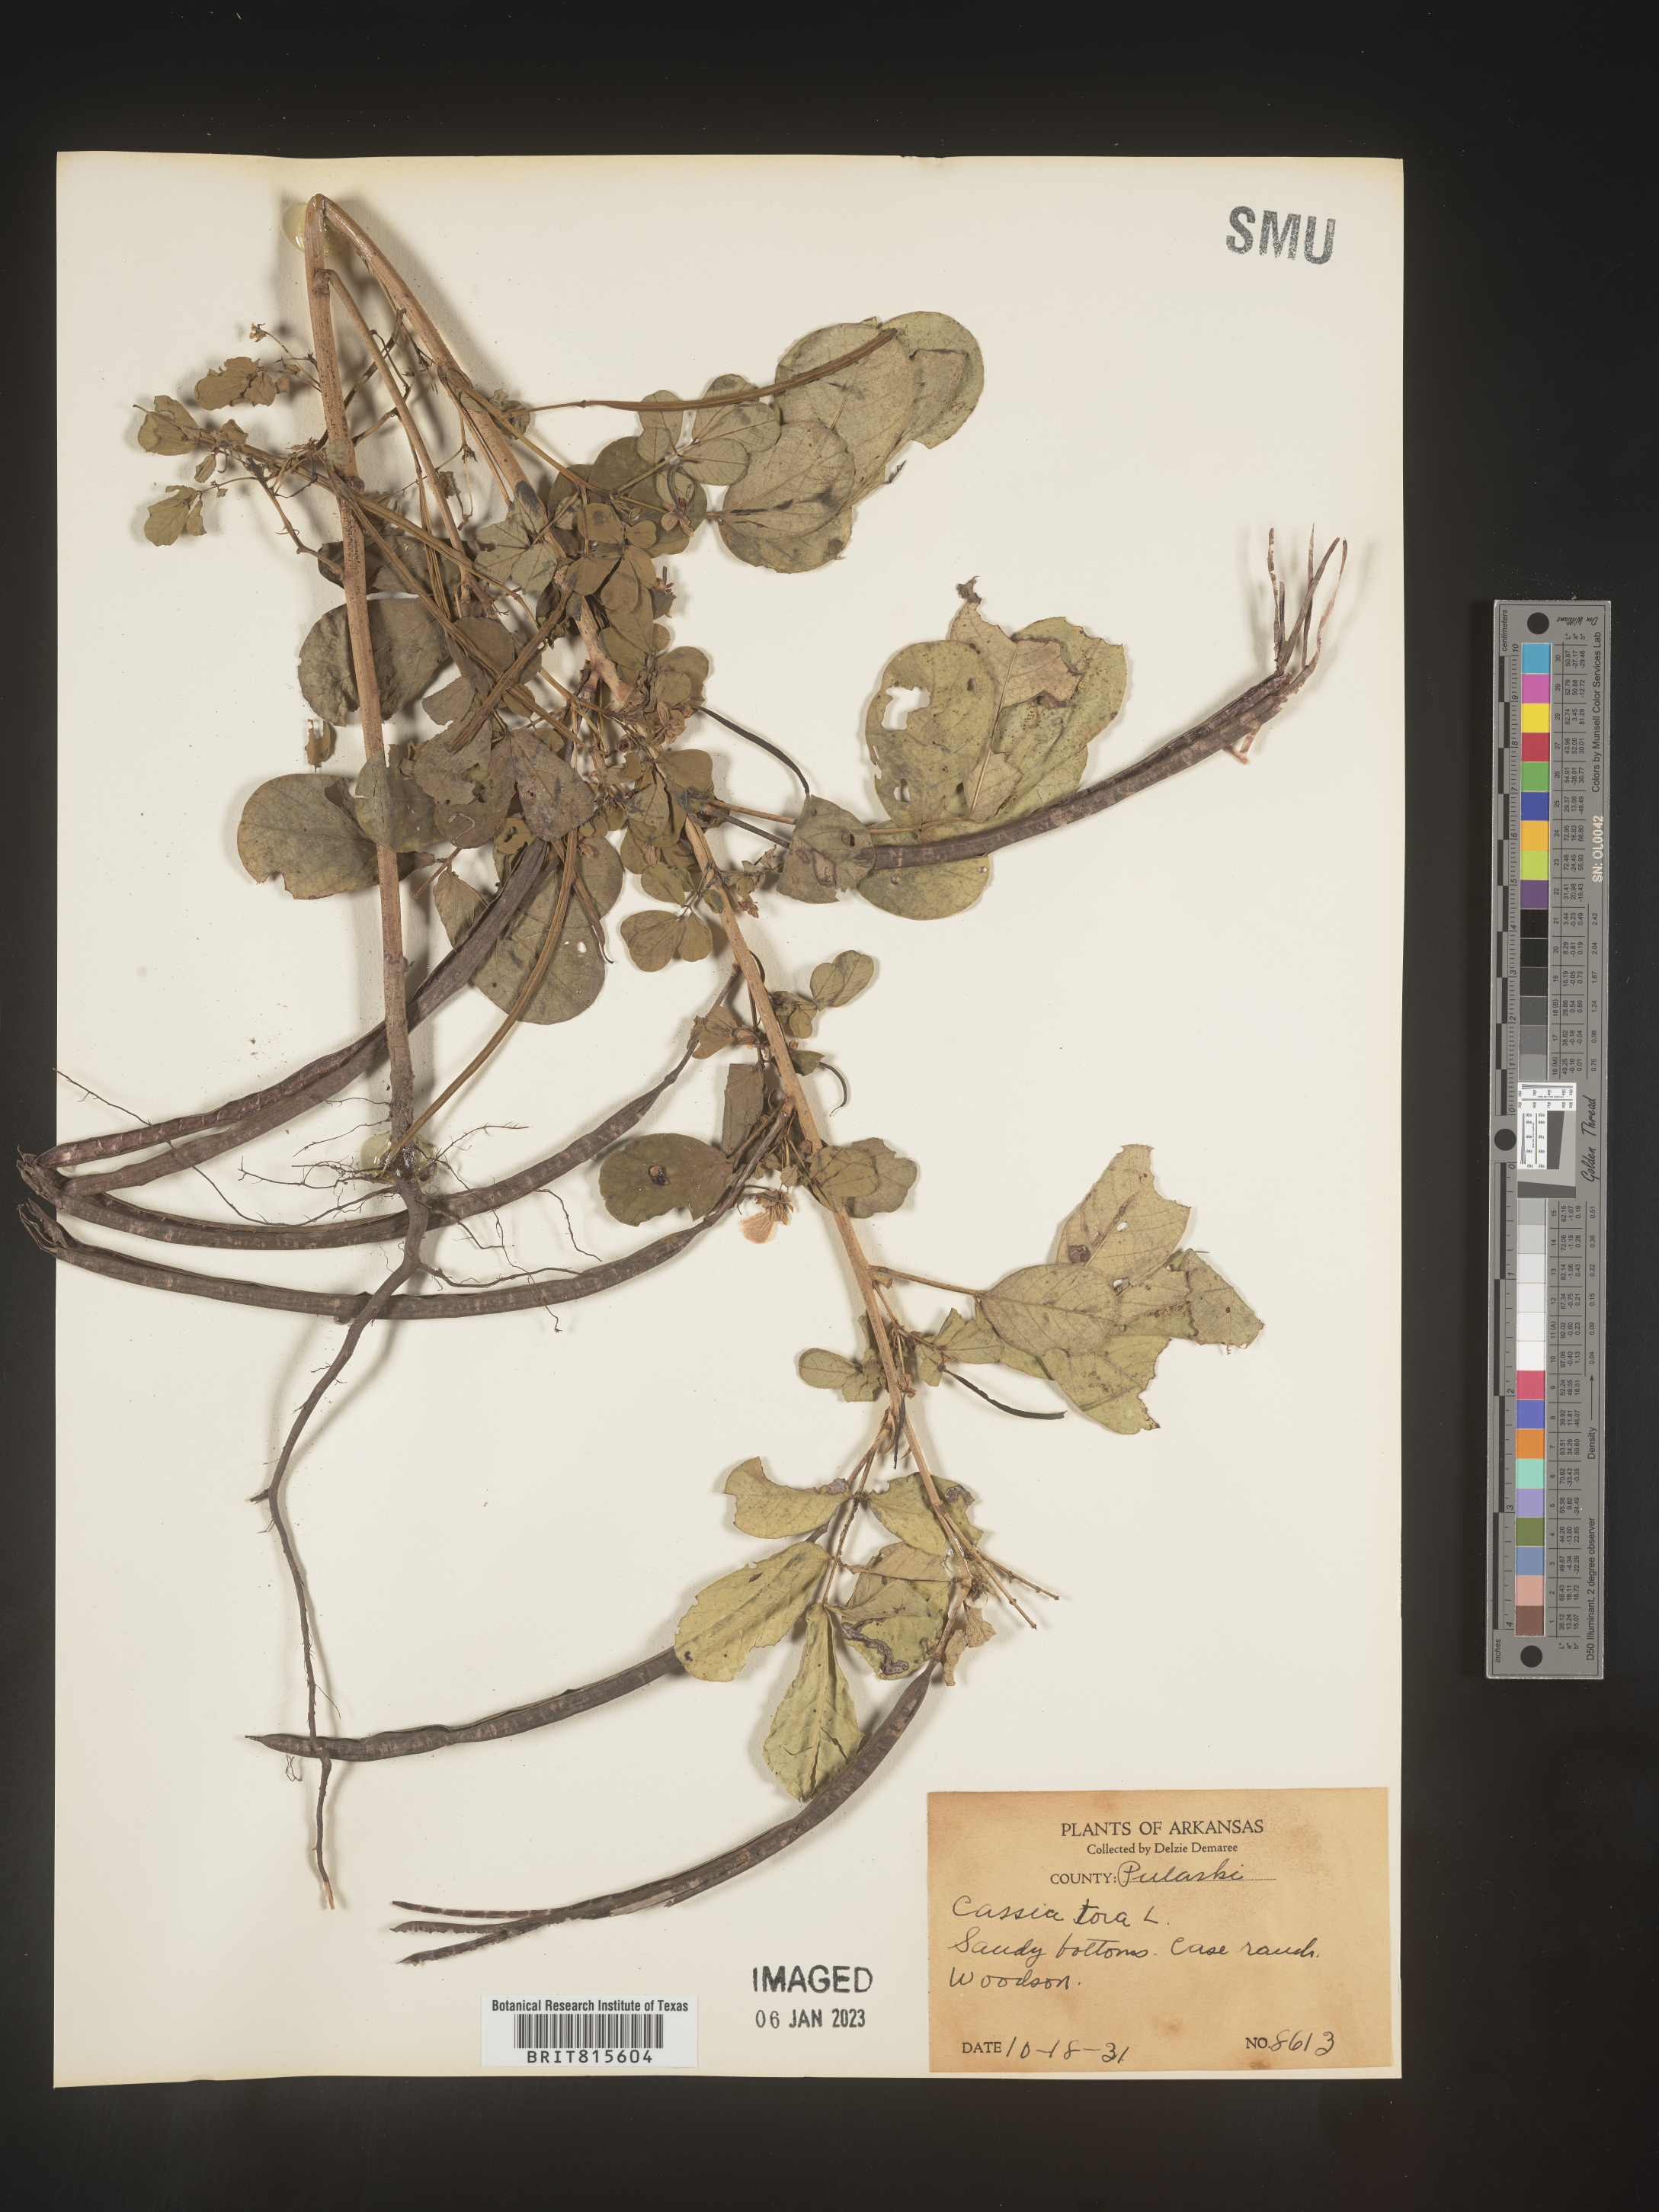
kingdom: Plantae
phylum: Tracheophyta
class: Magnoliopsida
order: Fabales
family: Fabaceae
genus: Senna
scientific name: Senna tora
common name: Sickle senna
